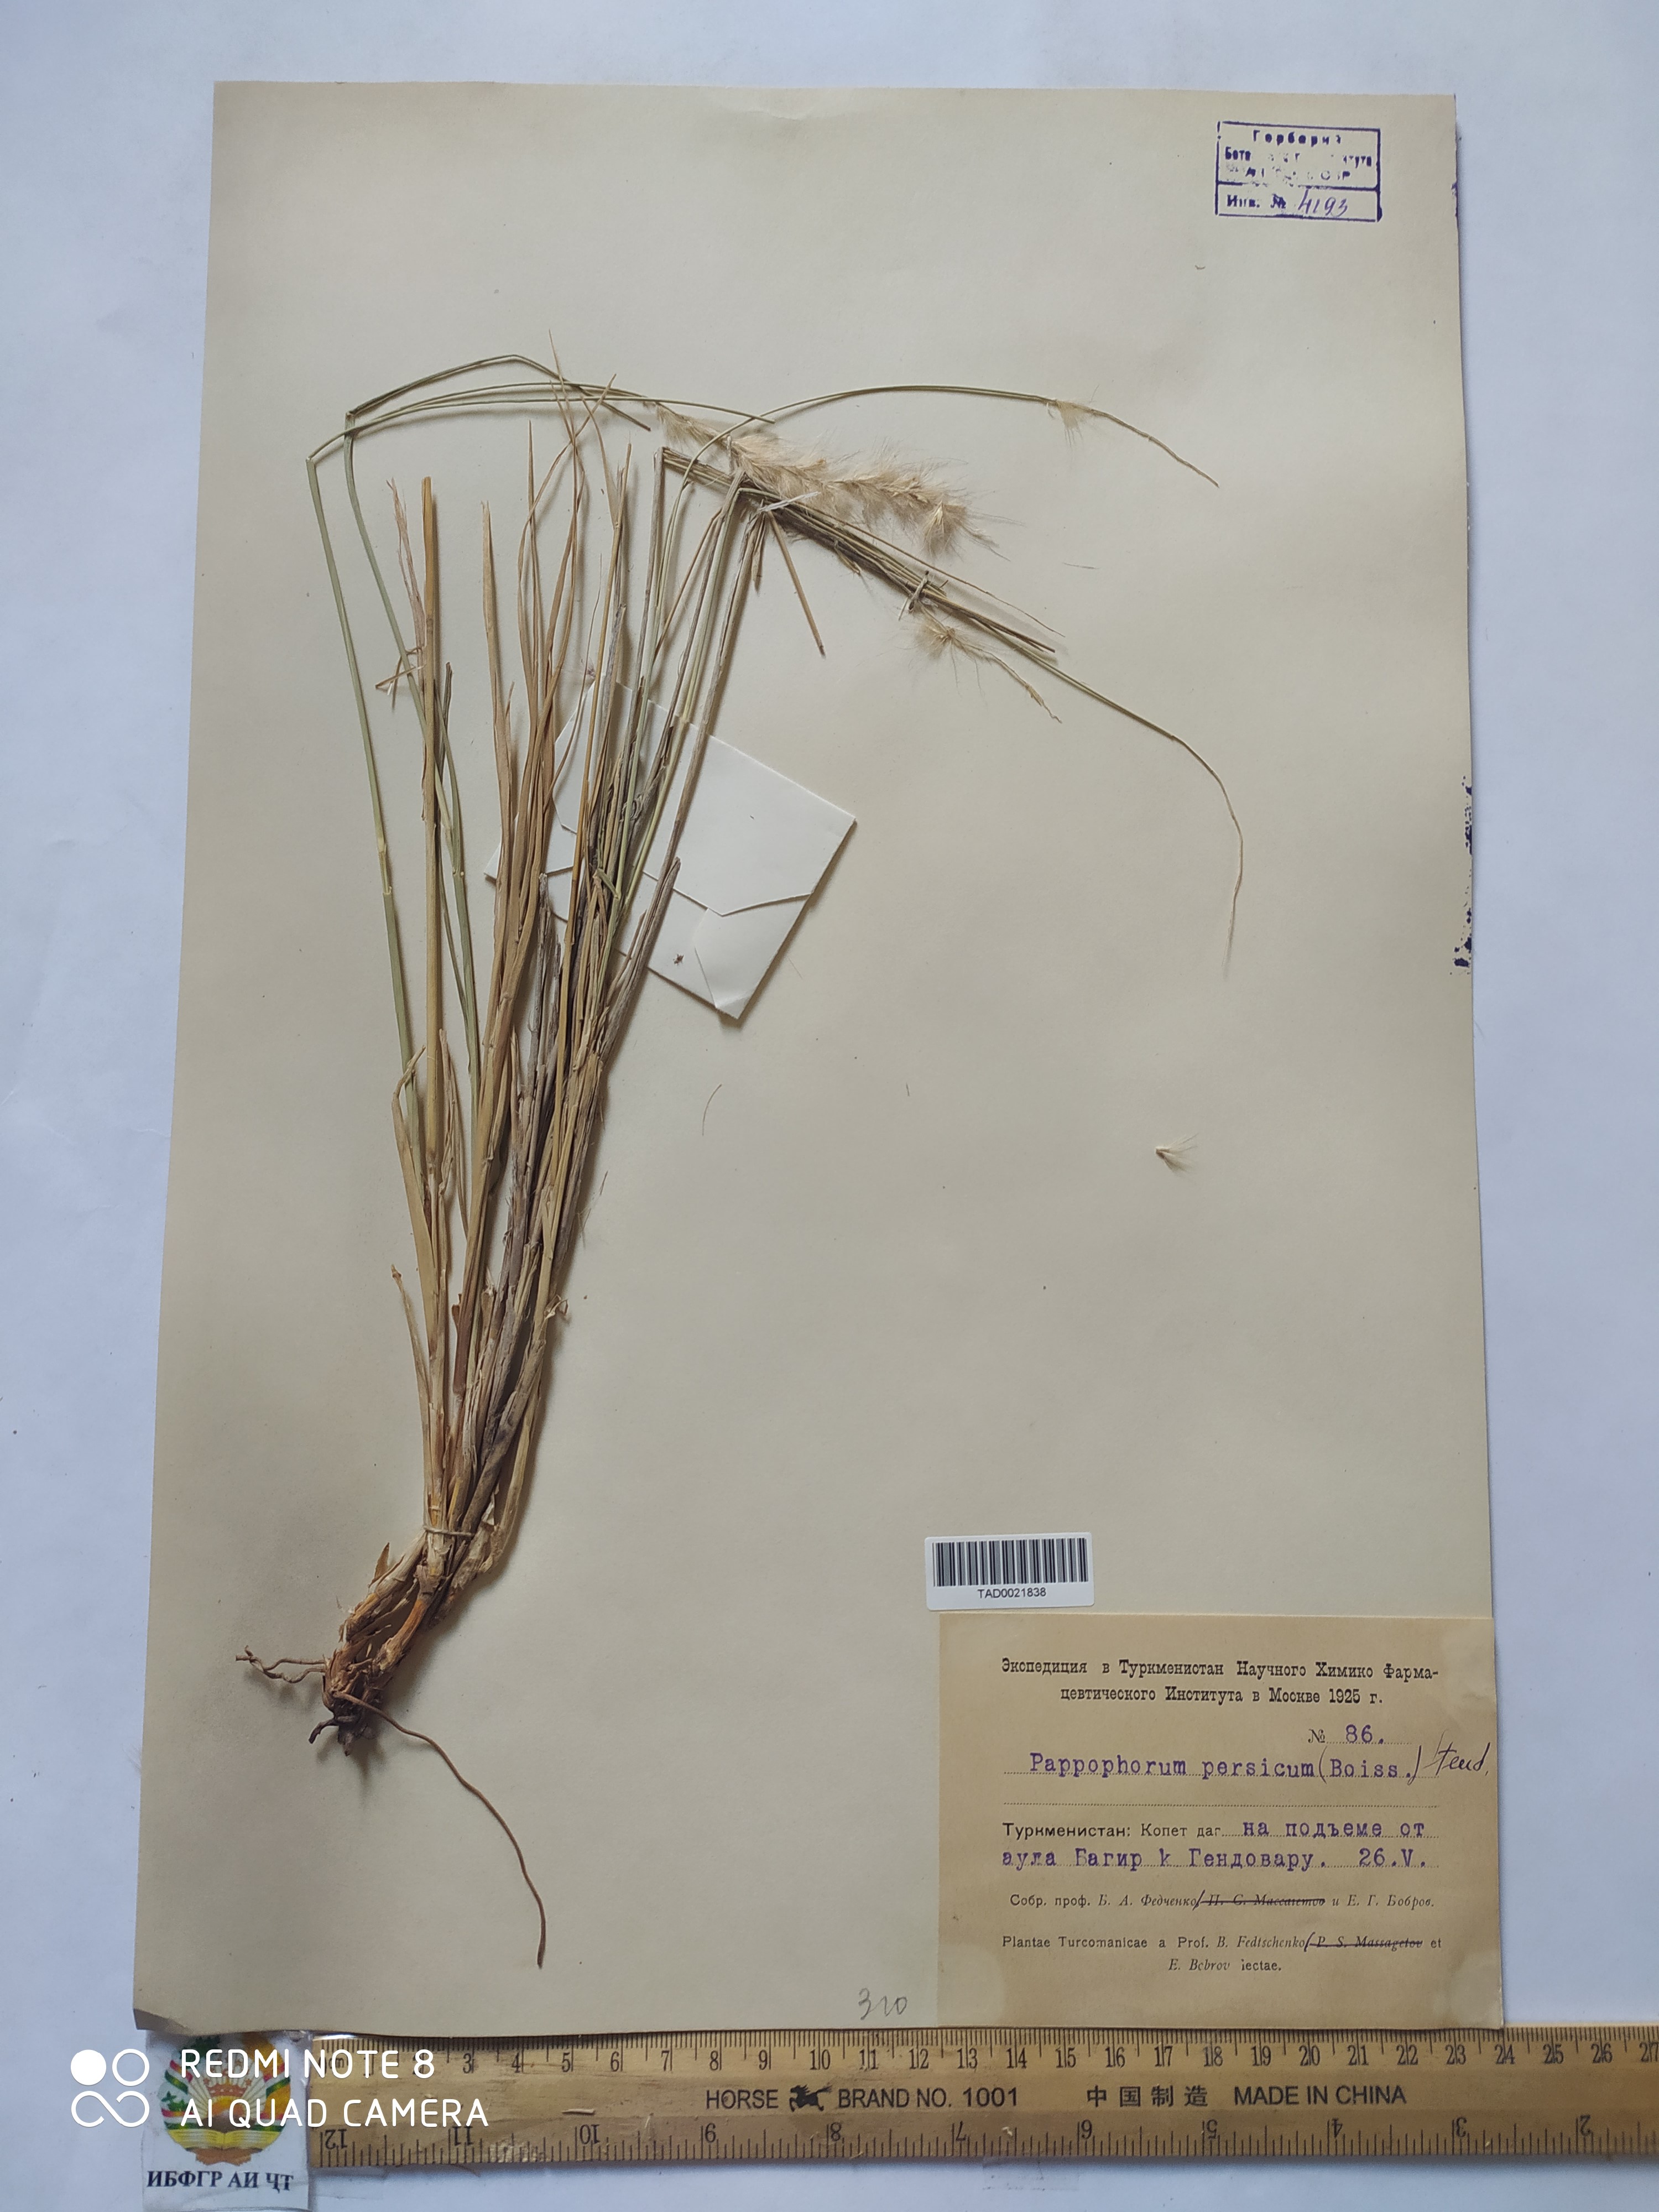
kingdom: Plantae
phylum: Tracheophyta
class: Liliopsida
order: Poales
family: Poaceae
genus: Enneapogon
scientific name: Enneapogon persicus
